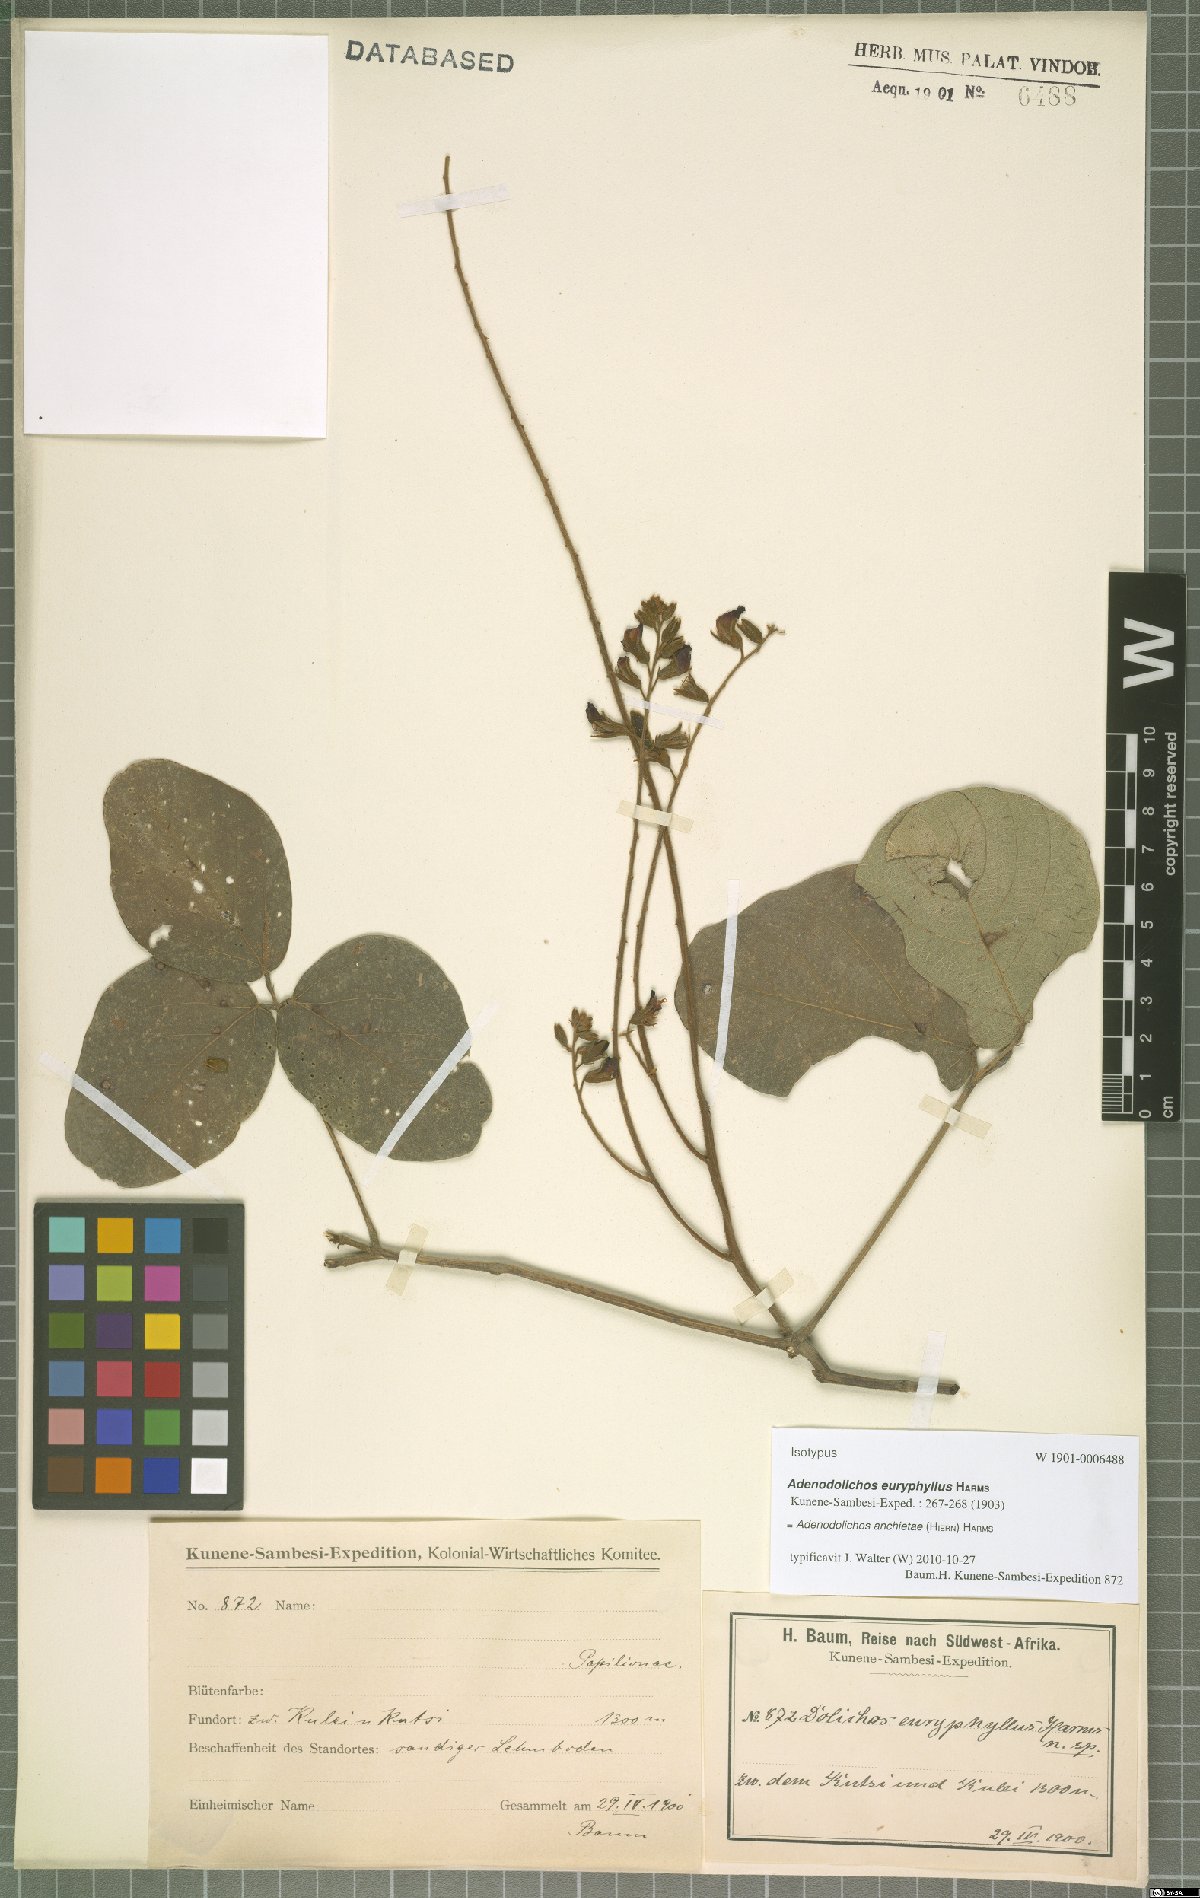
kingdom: Plantae
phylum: Tracheophyta
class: Magnoliopsida
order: Fabales
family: Fabaceae
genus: Adenodolichos
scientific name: Adenodolichos rhomboideus
